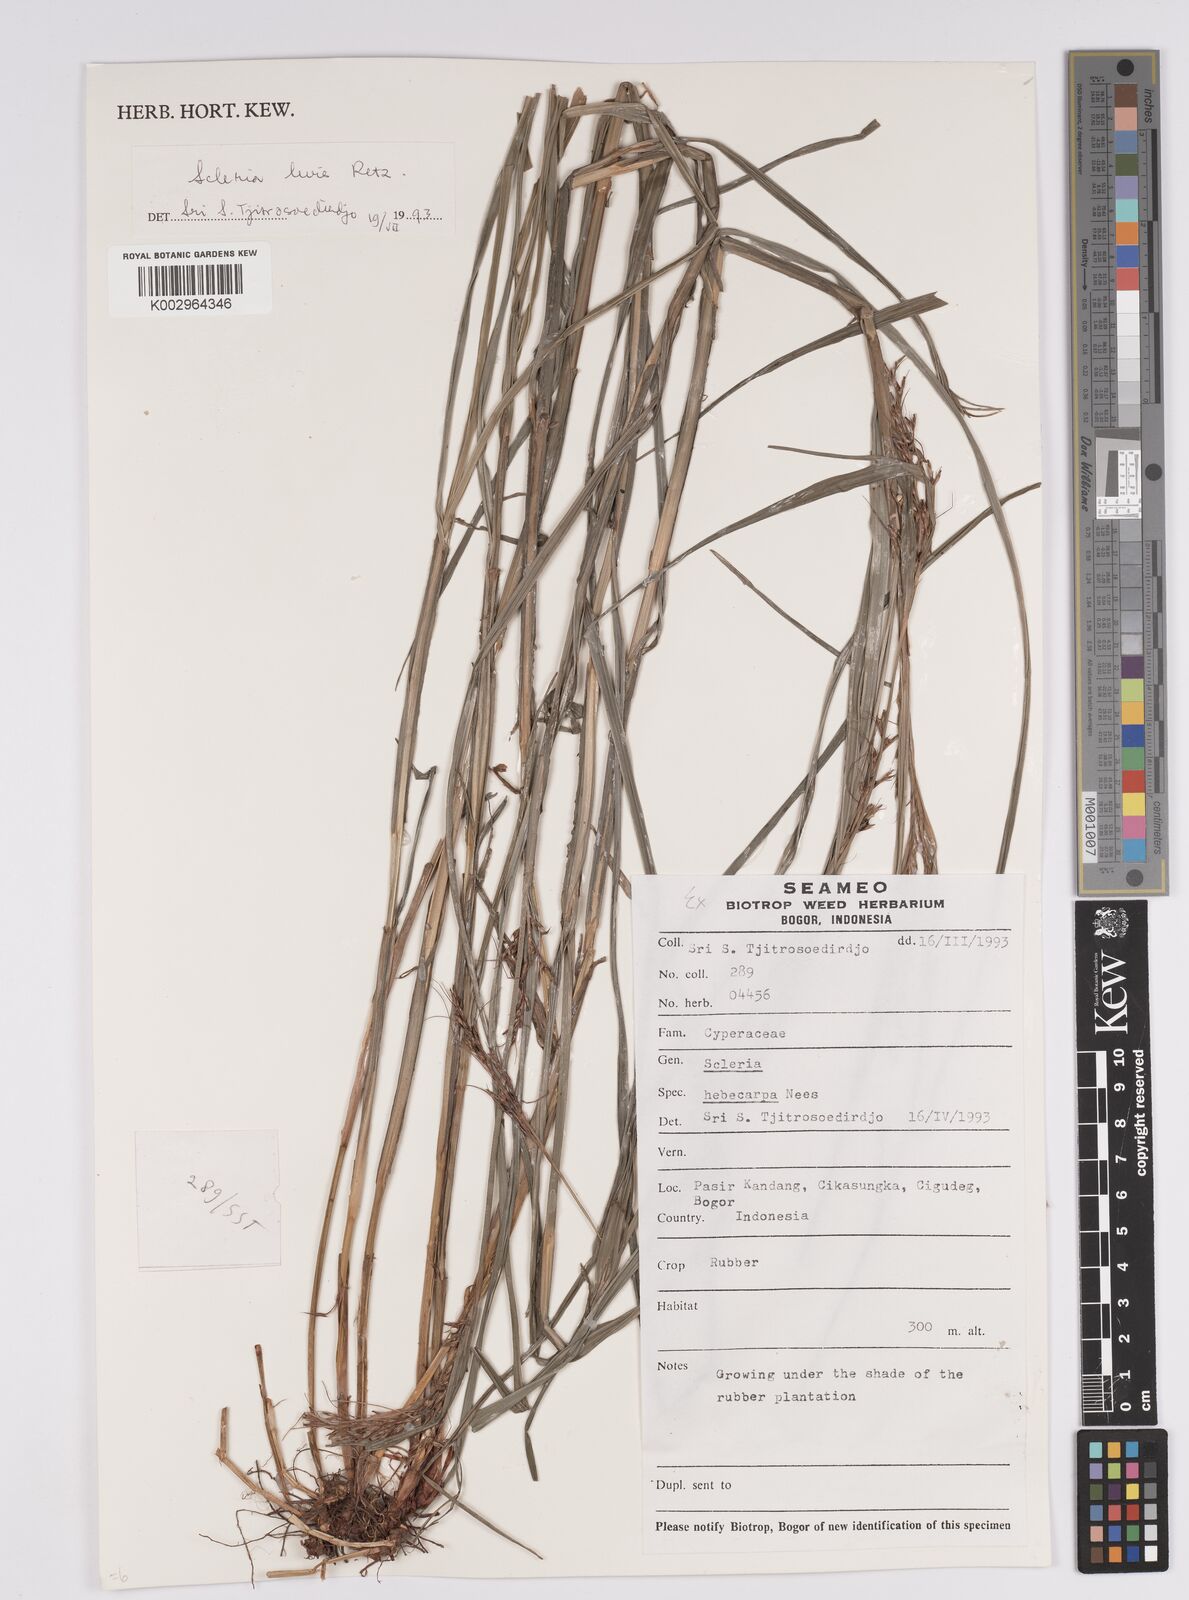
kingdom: Plantae
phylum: Tracheophyta
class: Liliopsida
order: Poales
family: Cyperaceae
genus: Scleria
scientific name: Scleria levis
